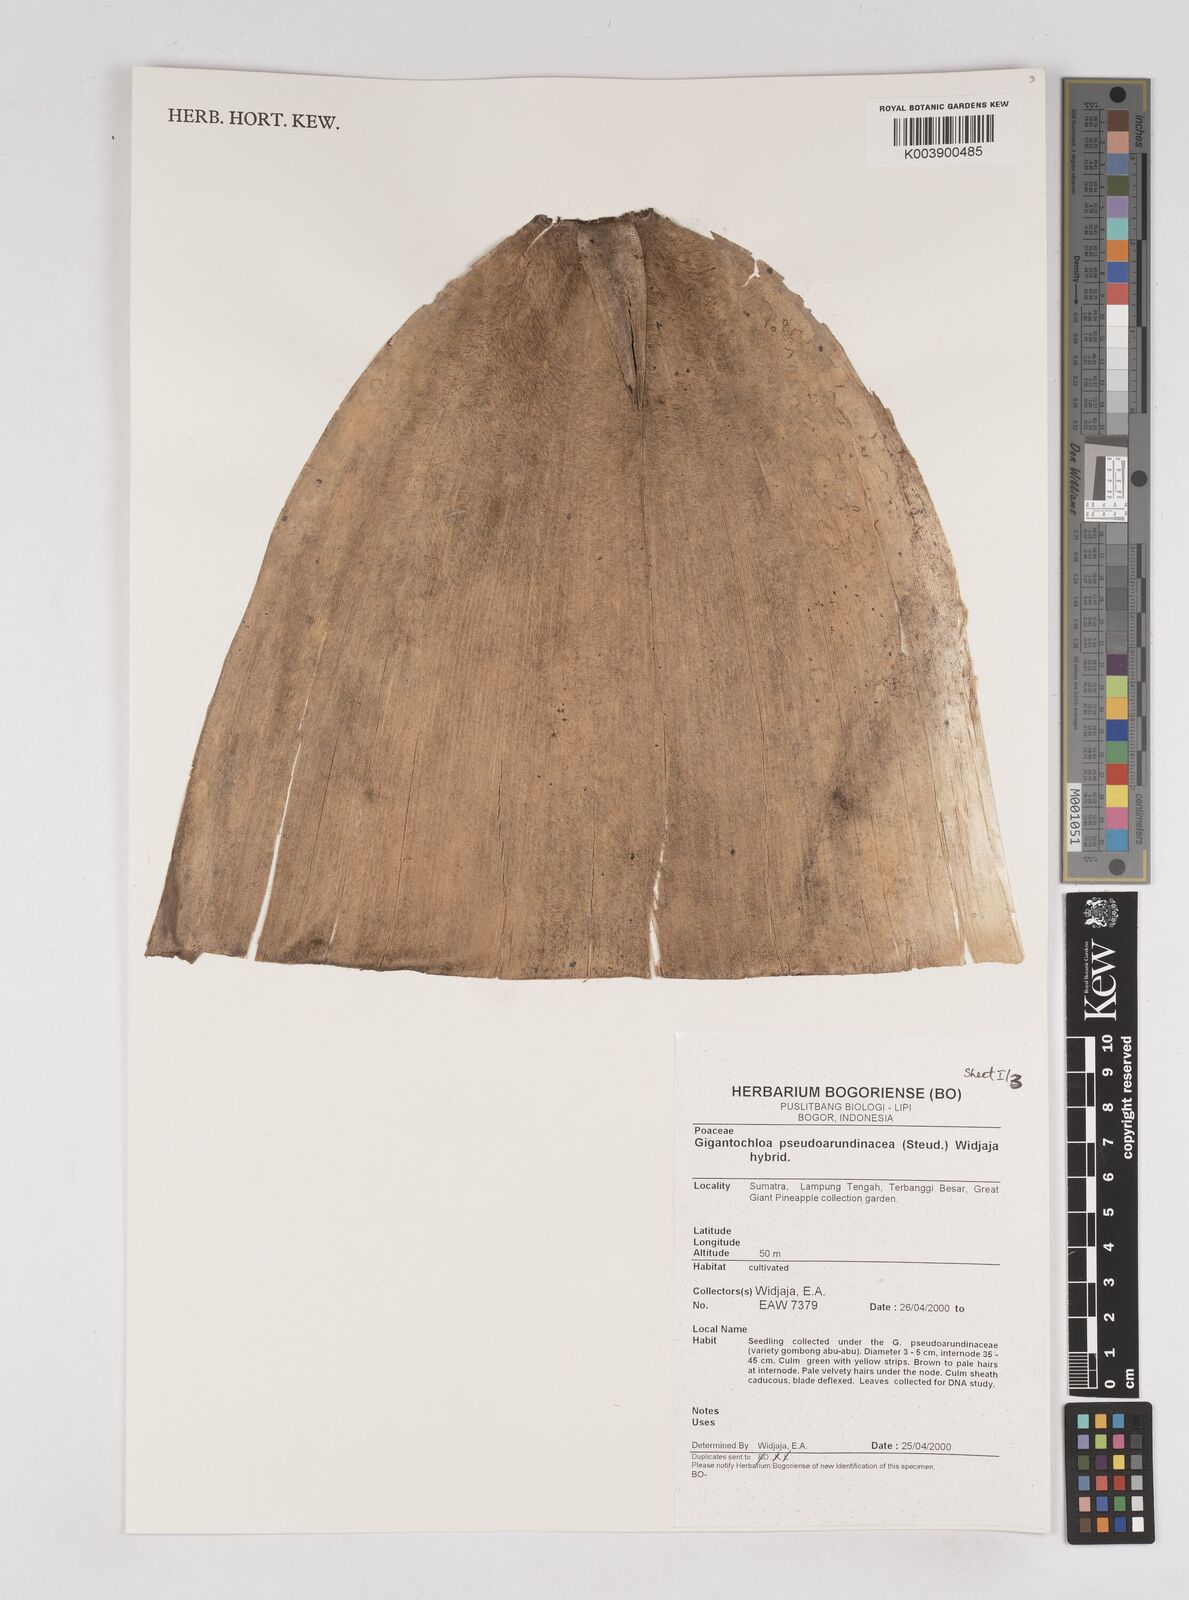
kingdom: Plantae
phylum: Tracheophyta
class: Liliopsida
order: Poales
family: Poaceae
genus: Gigantochloa
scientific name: Gigantochloa verticillata
